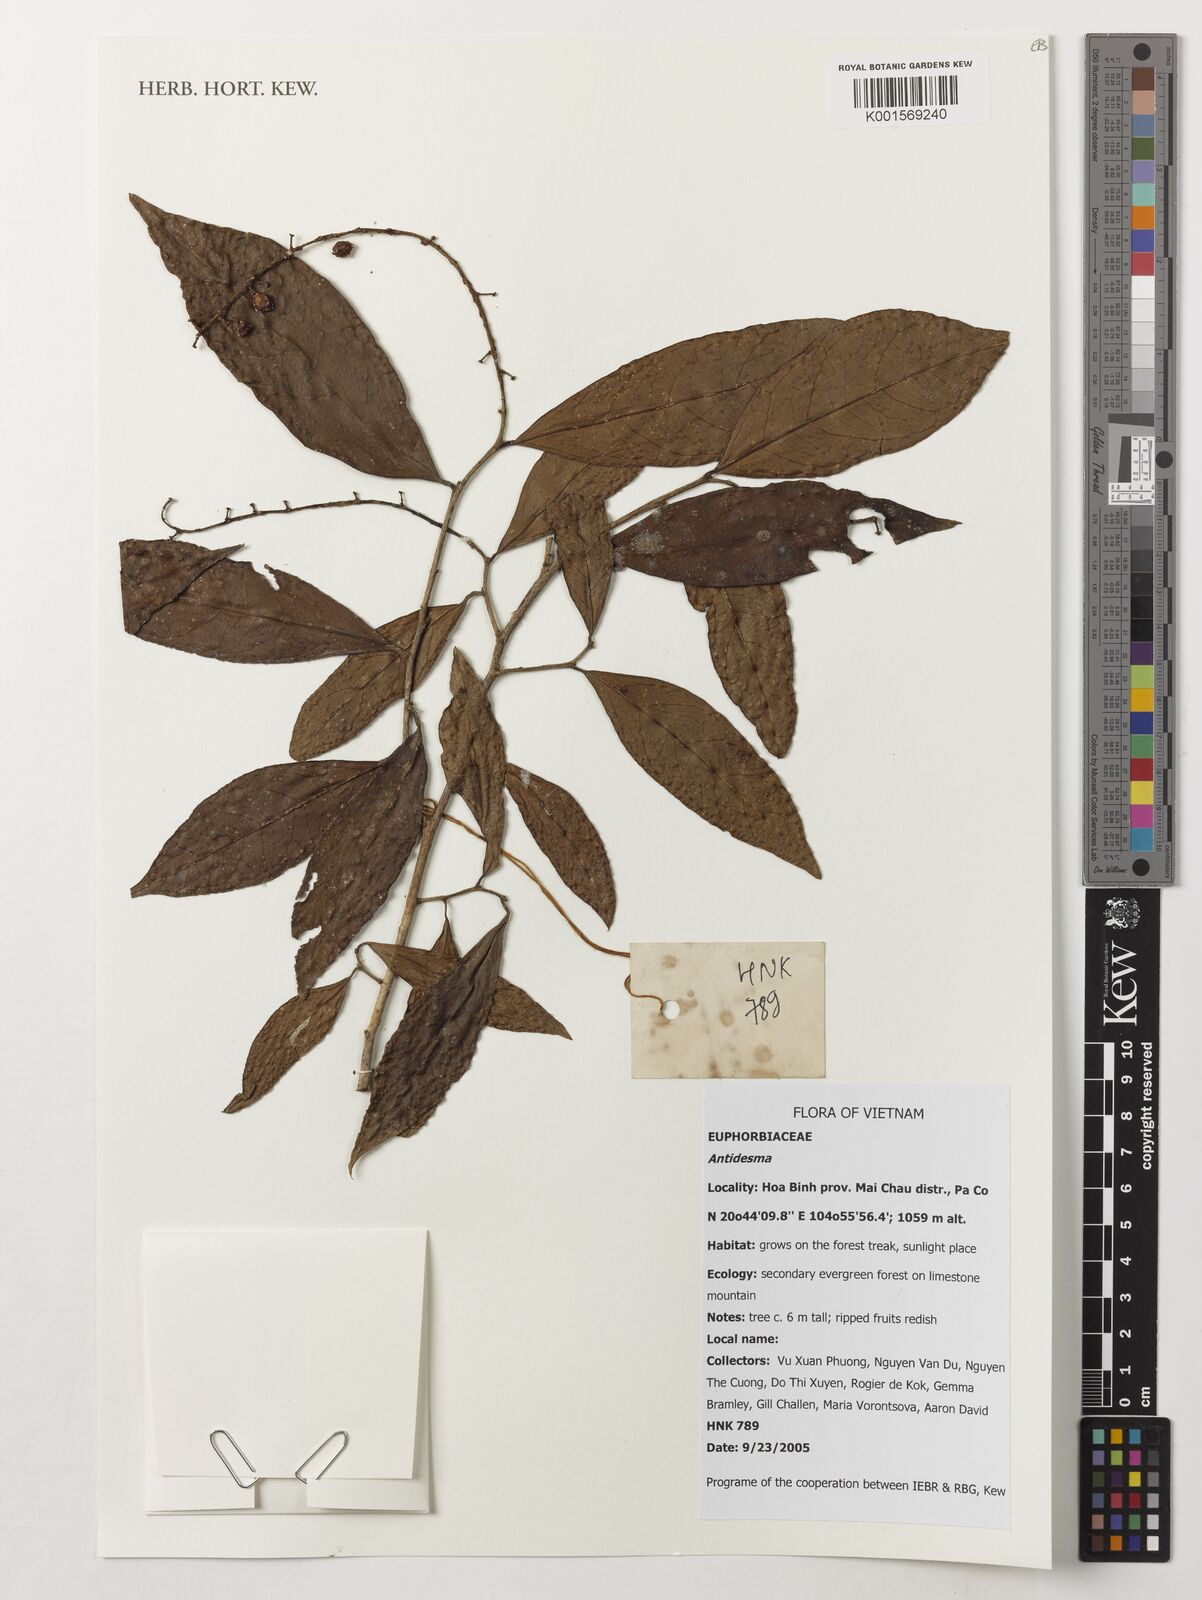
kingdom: Plantae
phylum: Tracheophyta
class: Magnoliopsida
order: Malpighiales
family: Phyllanthaceae
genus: Antidesma
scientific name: Antidesma
